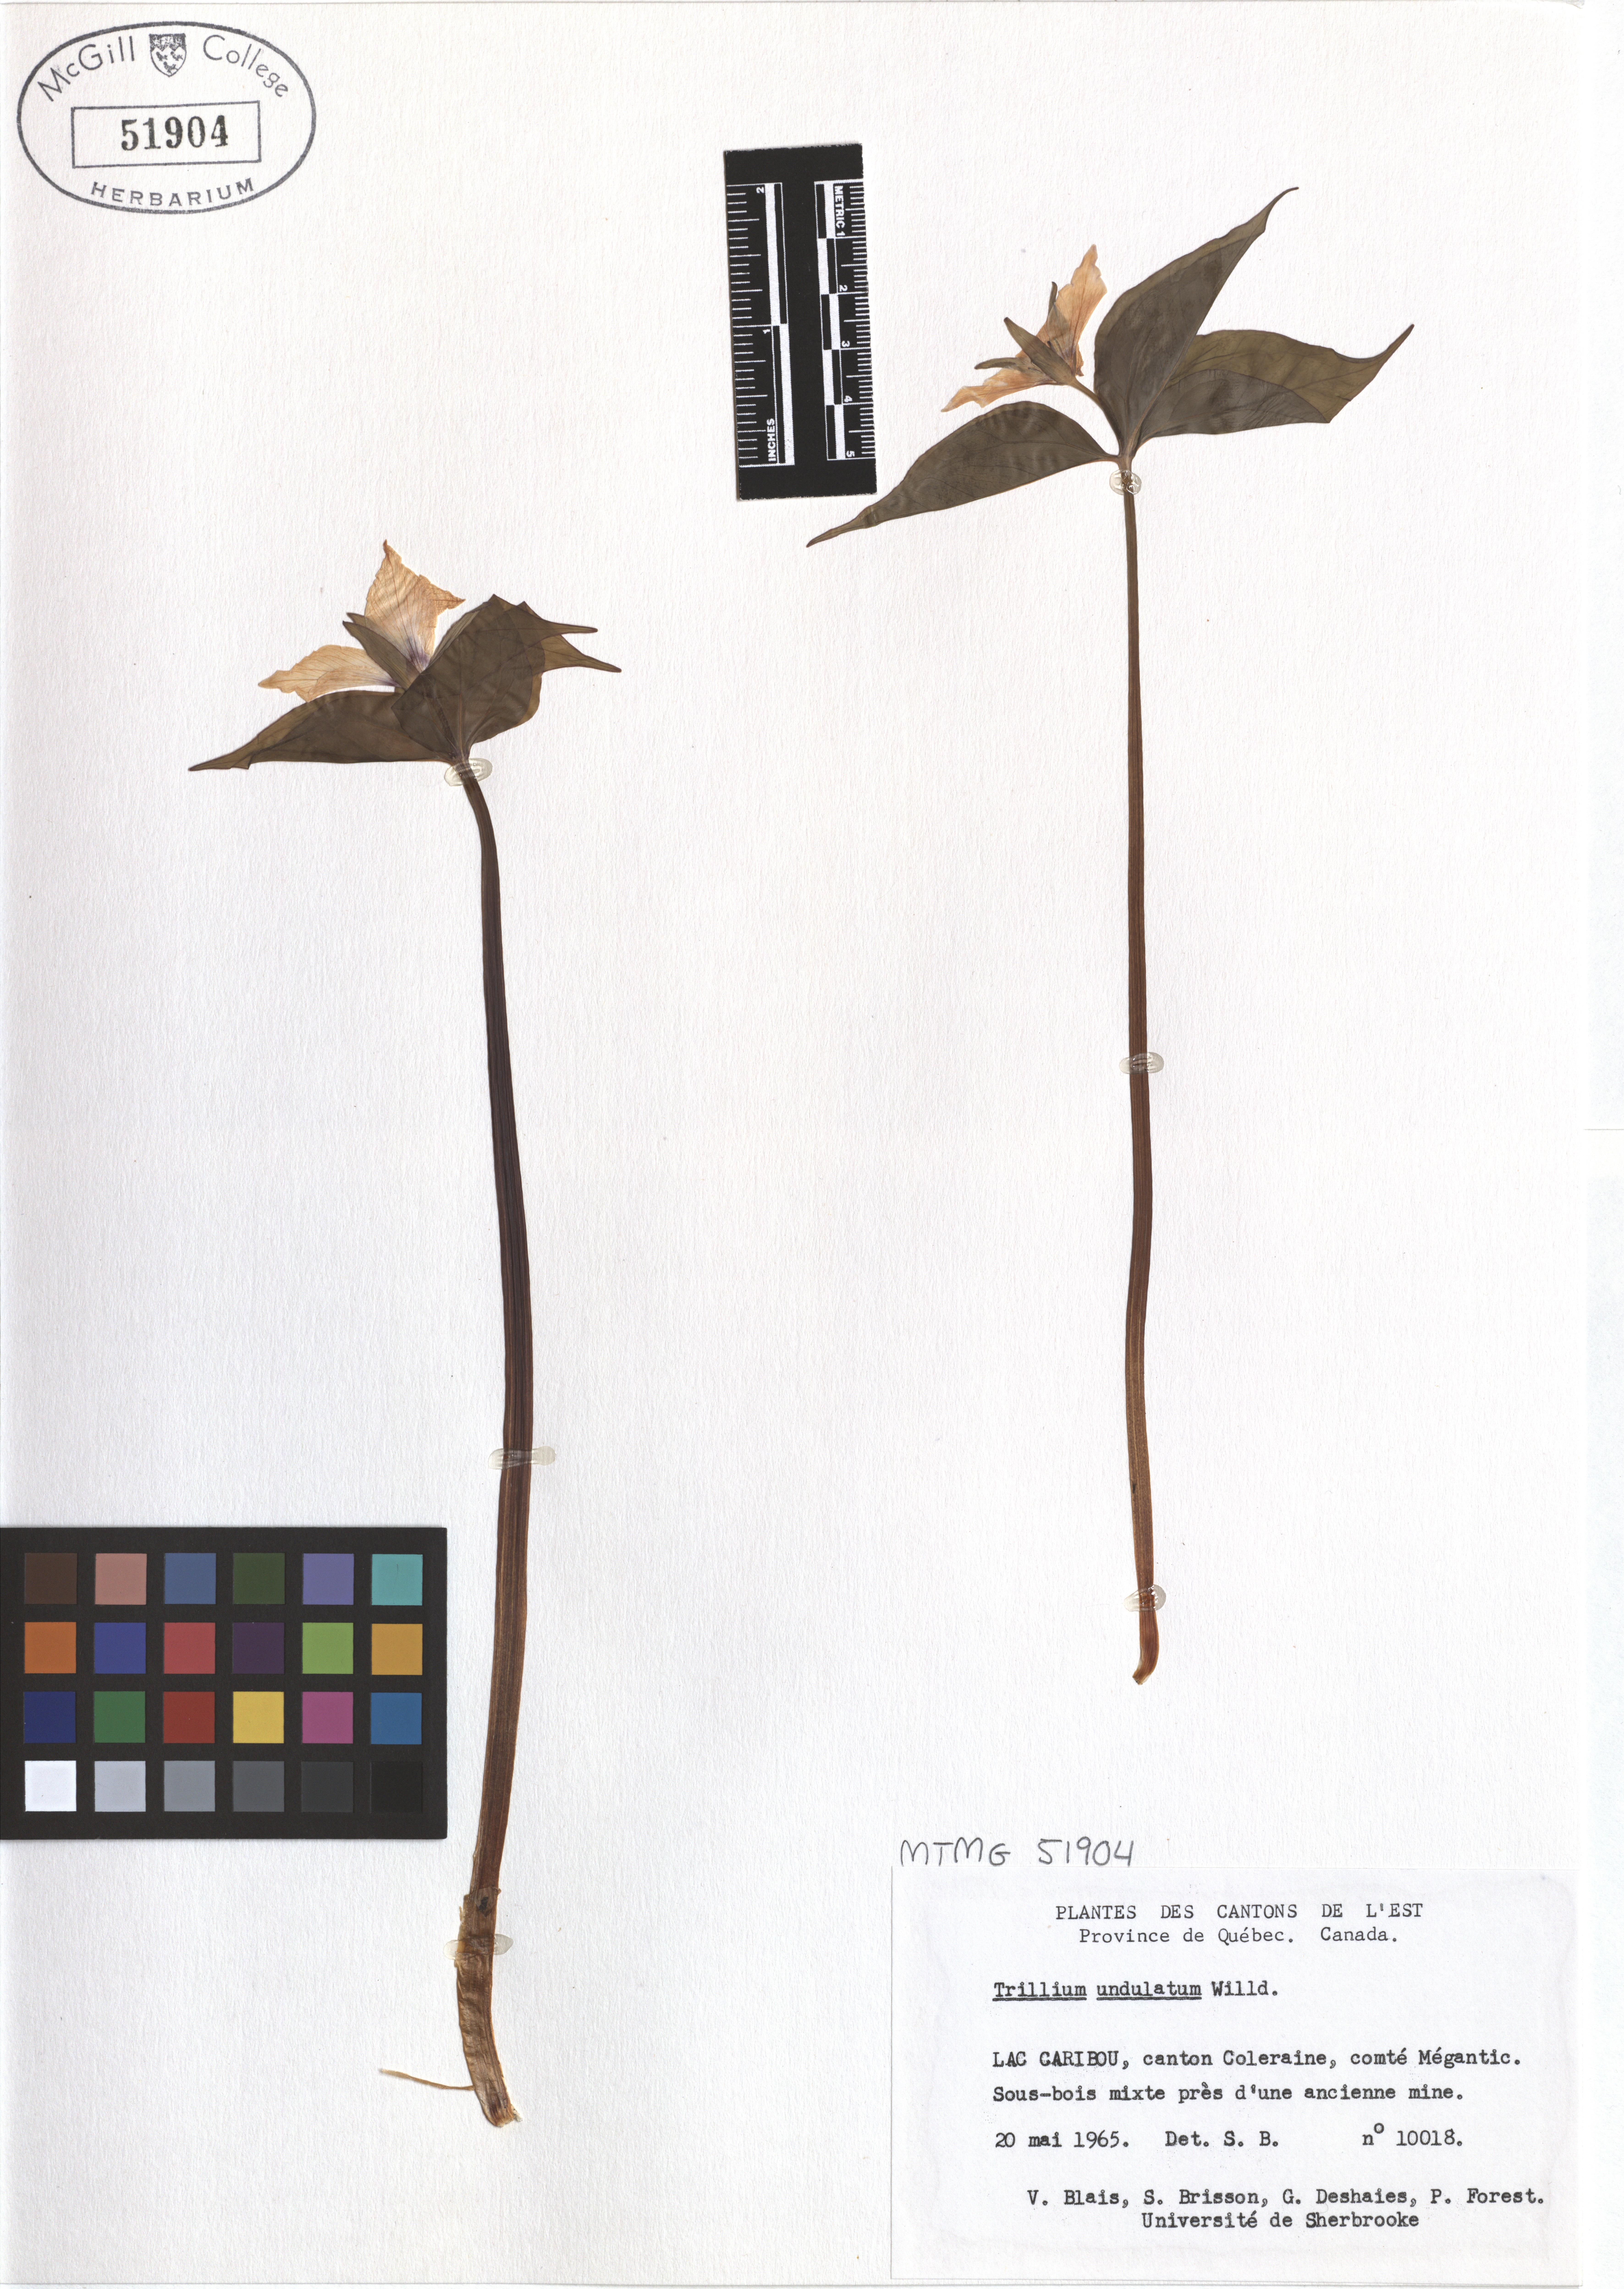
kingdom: Plantae
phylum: Tracheophyta
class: Liliopsida
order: Liliales
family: Melanthiaceae
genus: Trillium
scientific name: Trillium undulatum
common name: Paint trillium
